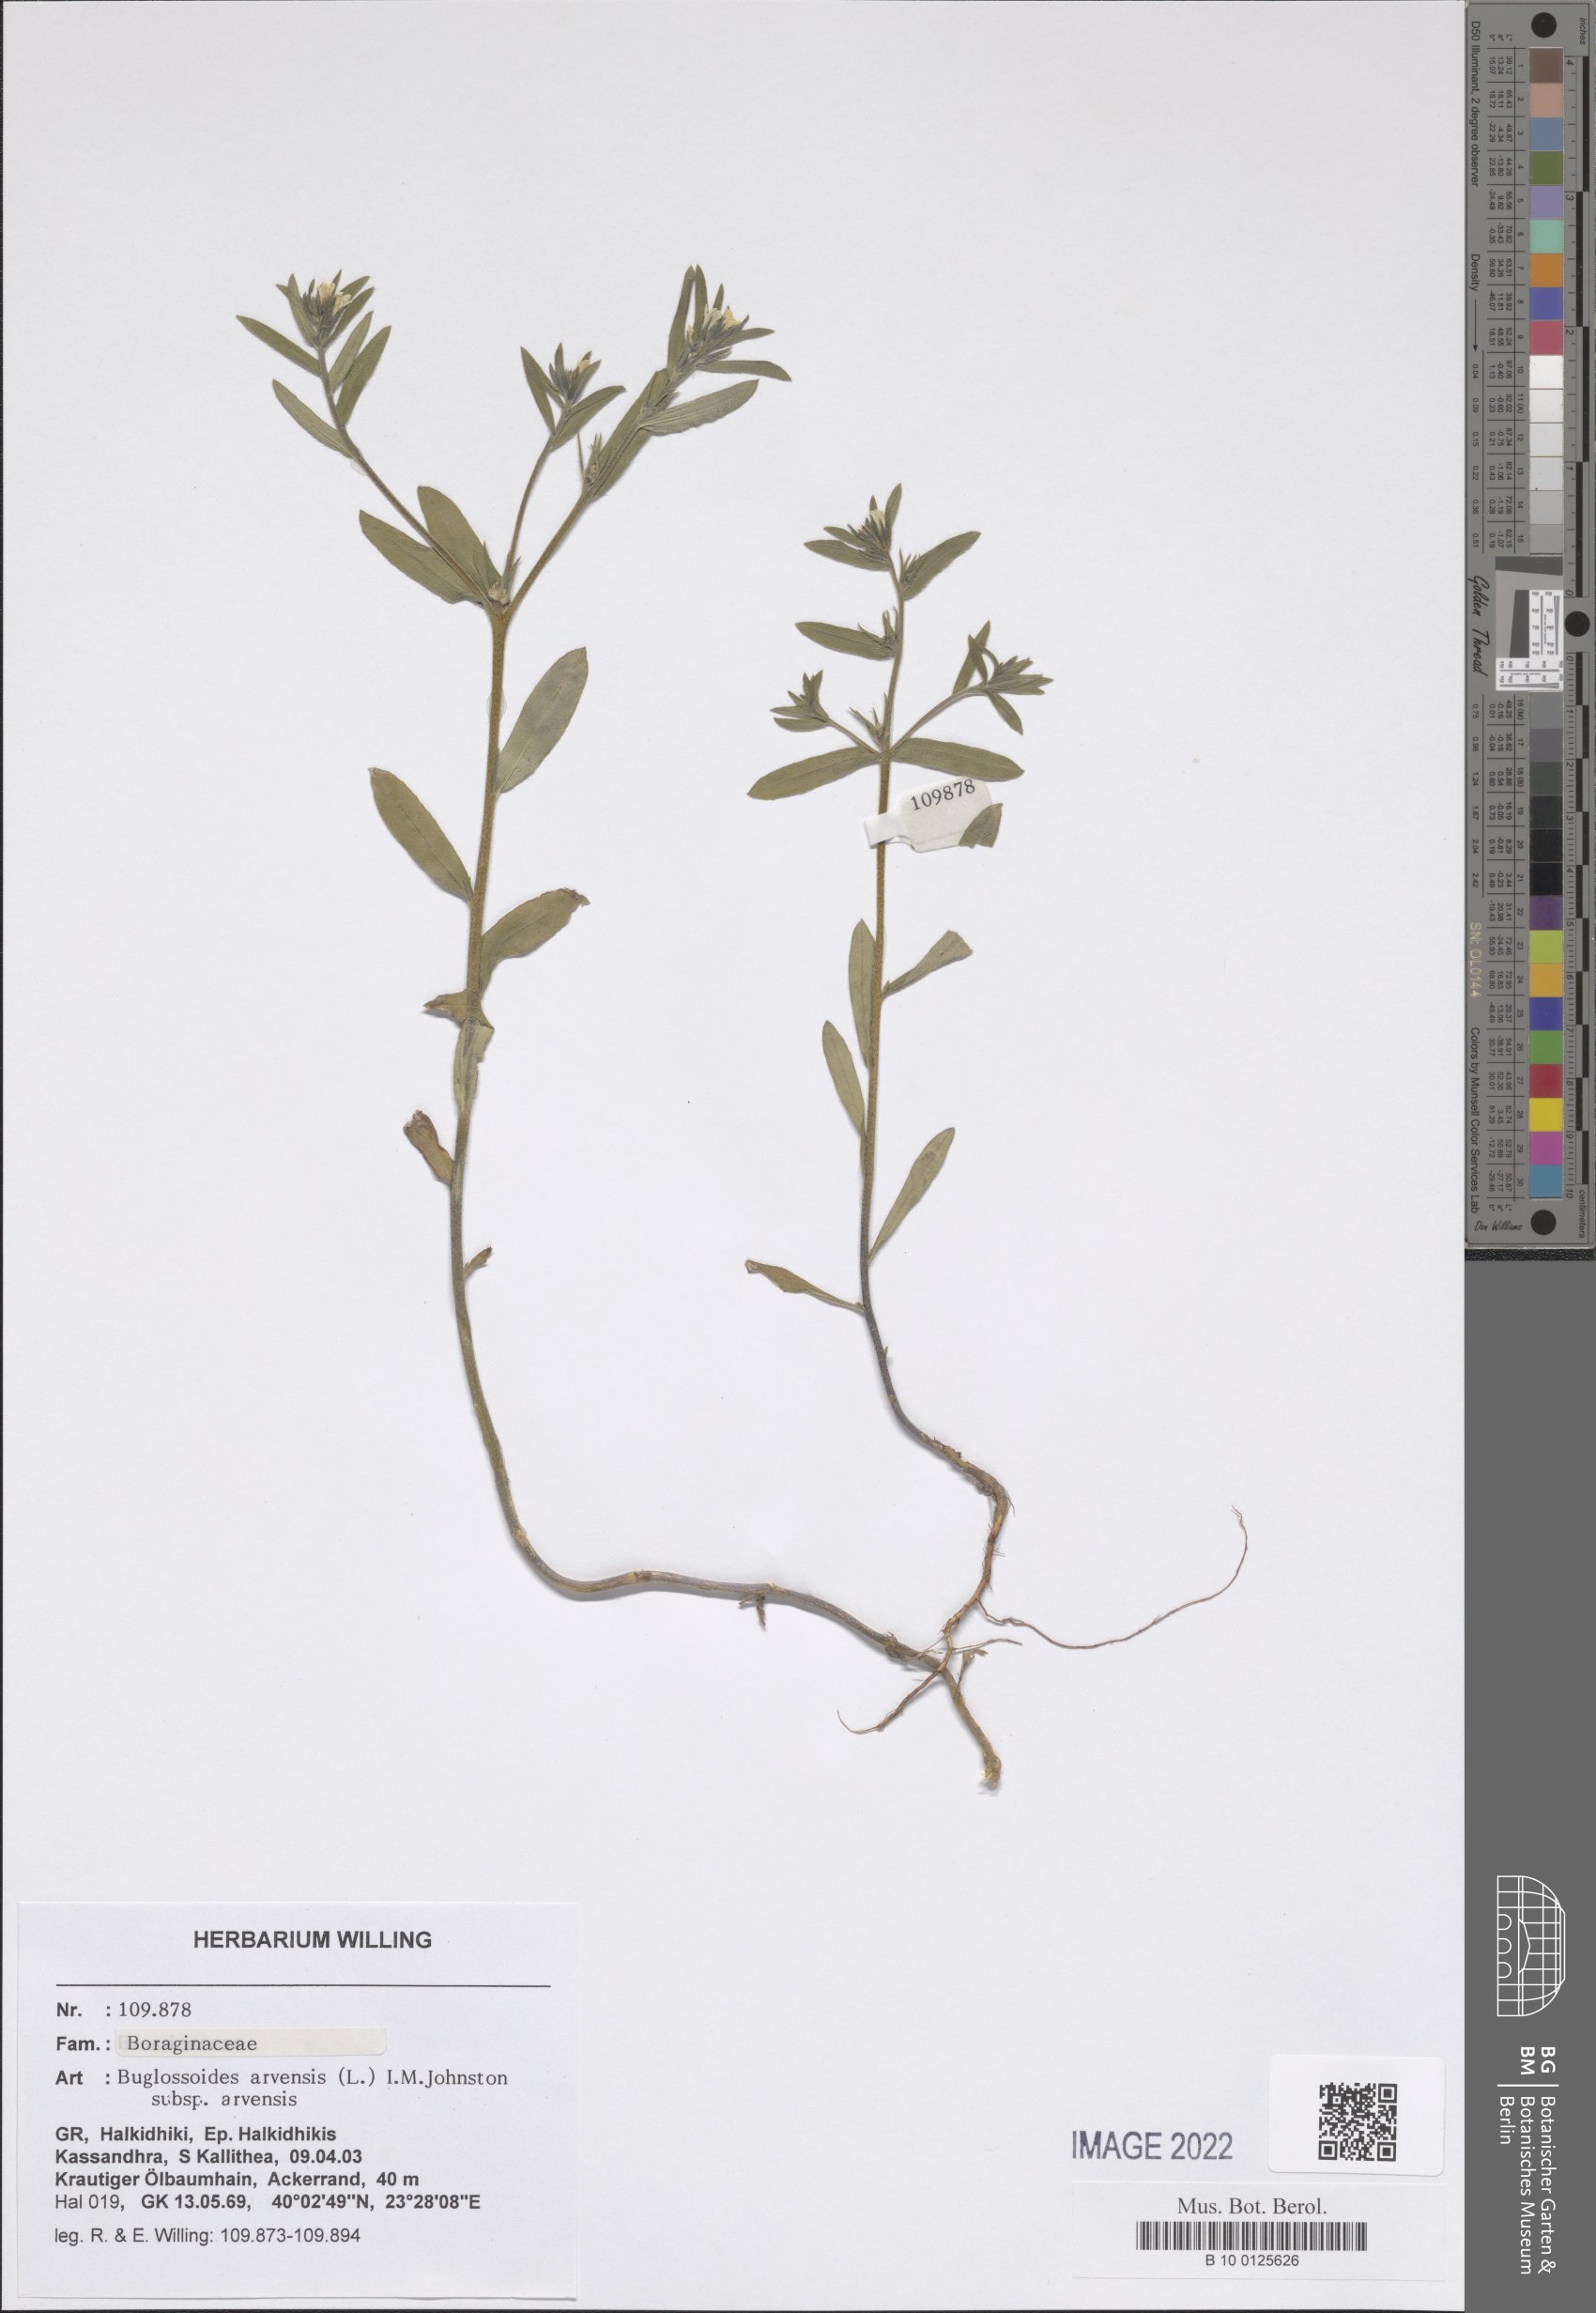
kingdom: Plantae
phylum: Tracheophyta
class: Magnoliopsida
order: Boraginales
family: Boraginaceae
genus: Buglossoides
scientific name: Buglossoides arvensis
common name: Corn gromwell
